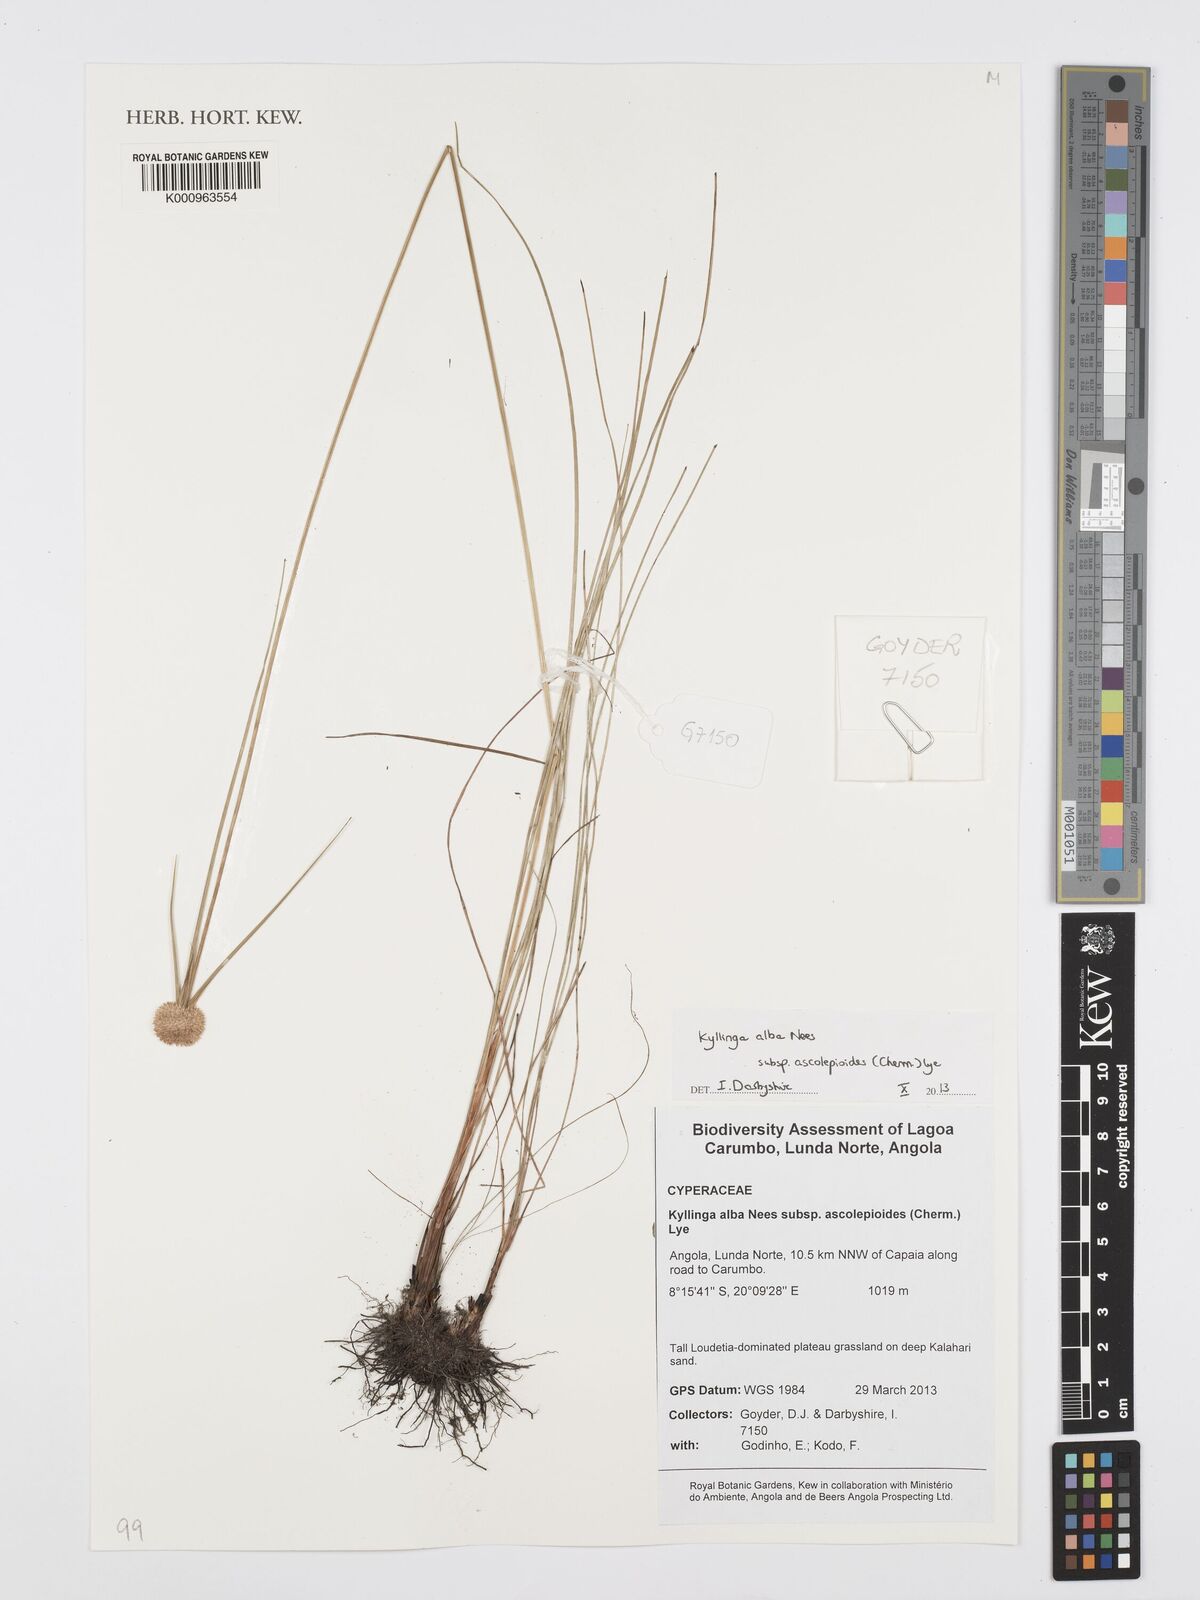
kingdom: Plantae
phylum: Tracheophyta
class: Liliopsida
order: Poales
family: Cyperaceae
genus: Cyperus
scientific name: Cyperus
